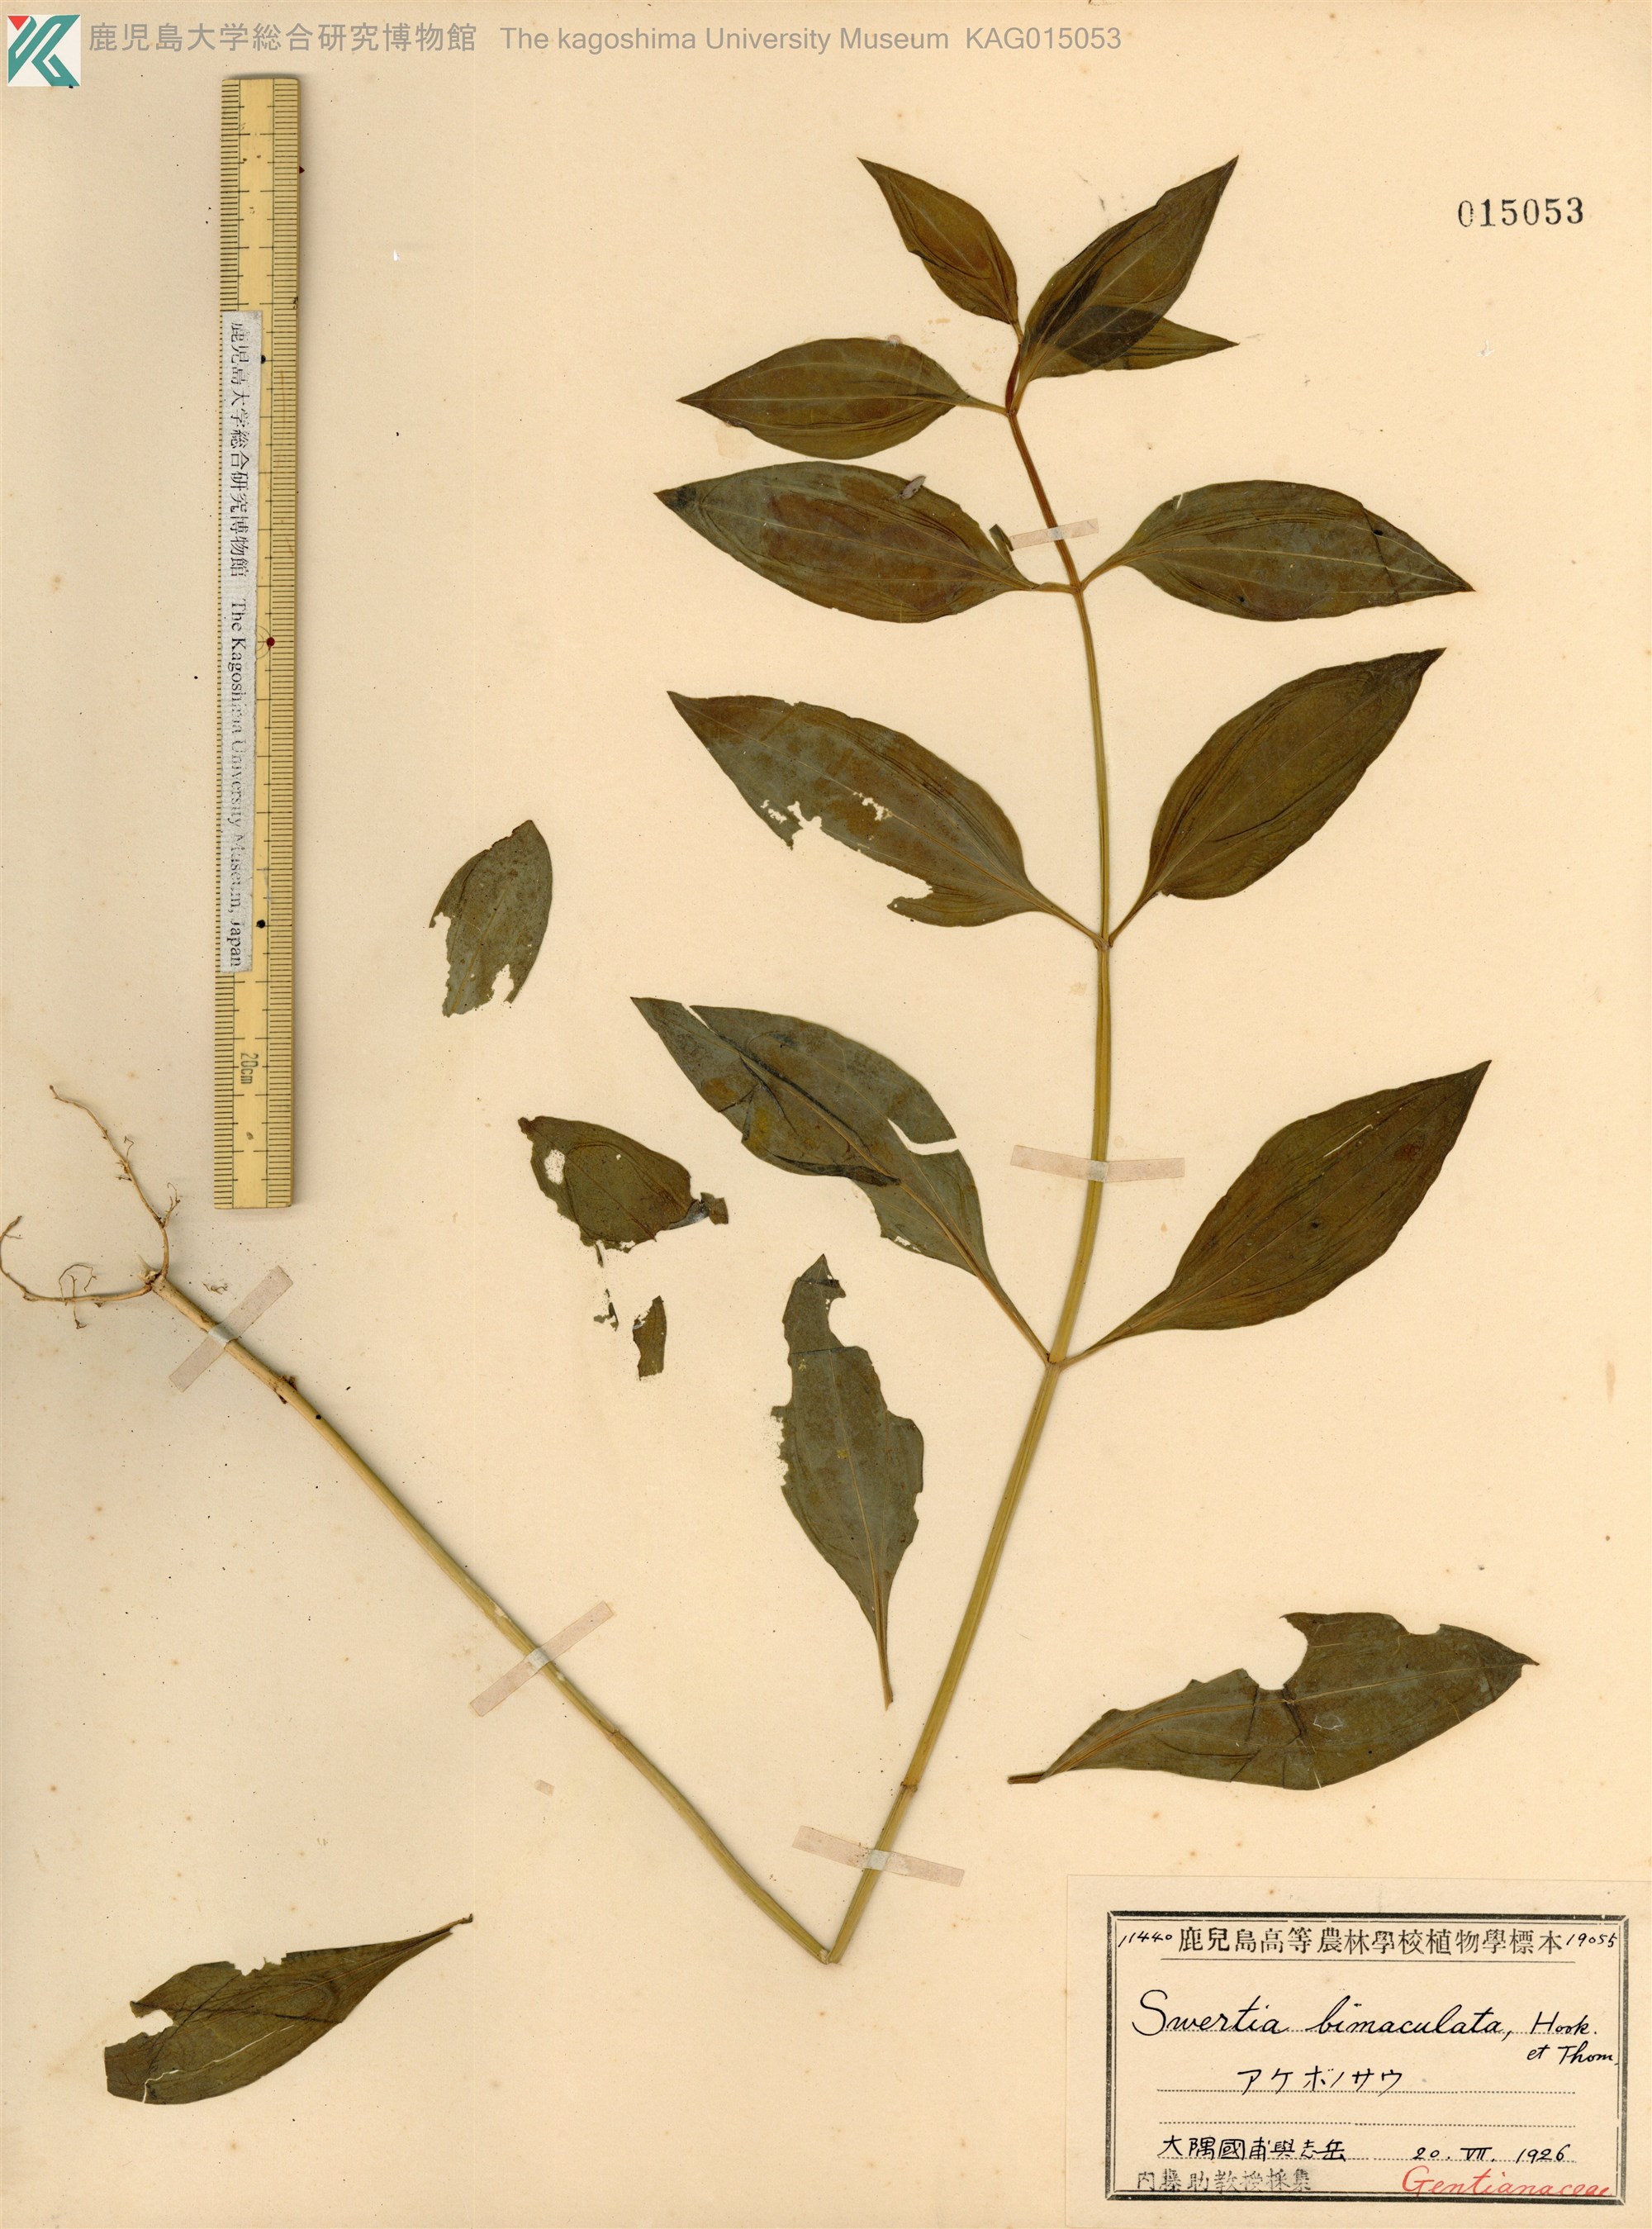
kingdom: Plantae
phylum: Tracheophyta
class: Magnoliopsida
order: Gentianales
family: Gentianaceae
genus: Swertia
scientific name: Swertia bimaculata
